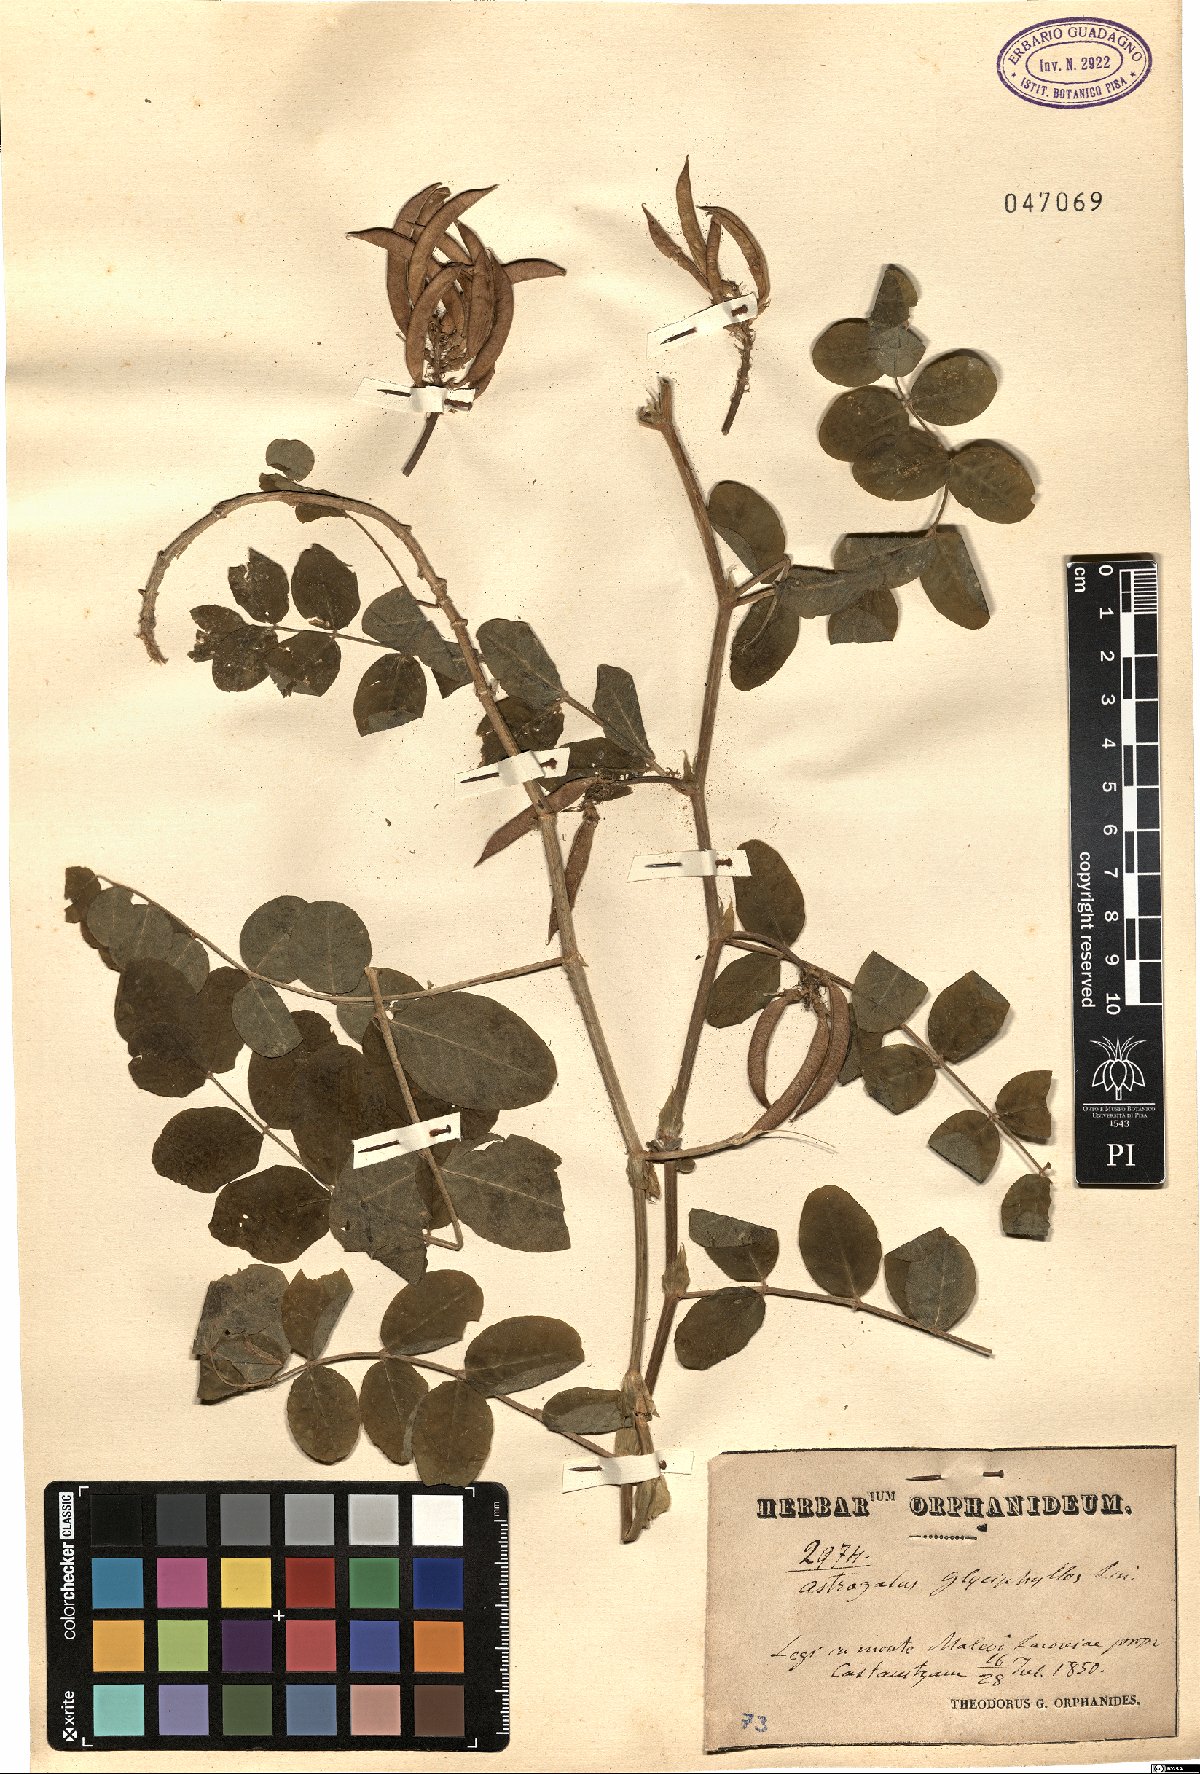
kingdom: Plantae
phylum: Tracheophyta
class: Magnoliopsida
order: Fabales
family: Fabaceae
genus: Astragalus
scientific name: Astragalus glycyphyllos
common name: Wild liquorice
